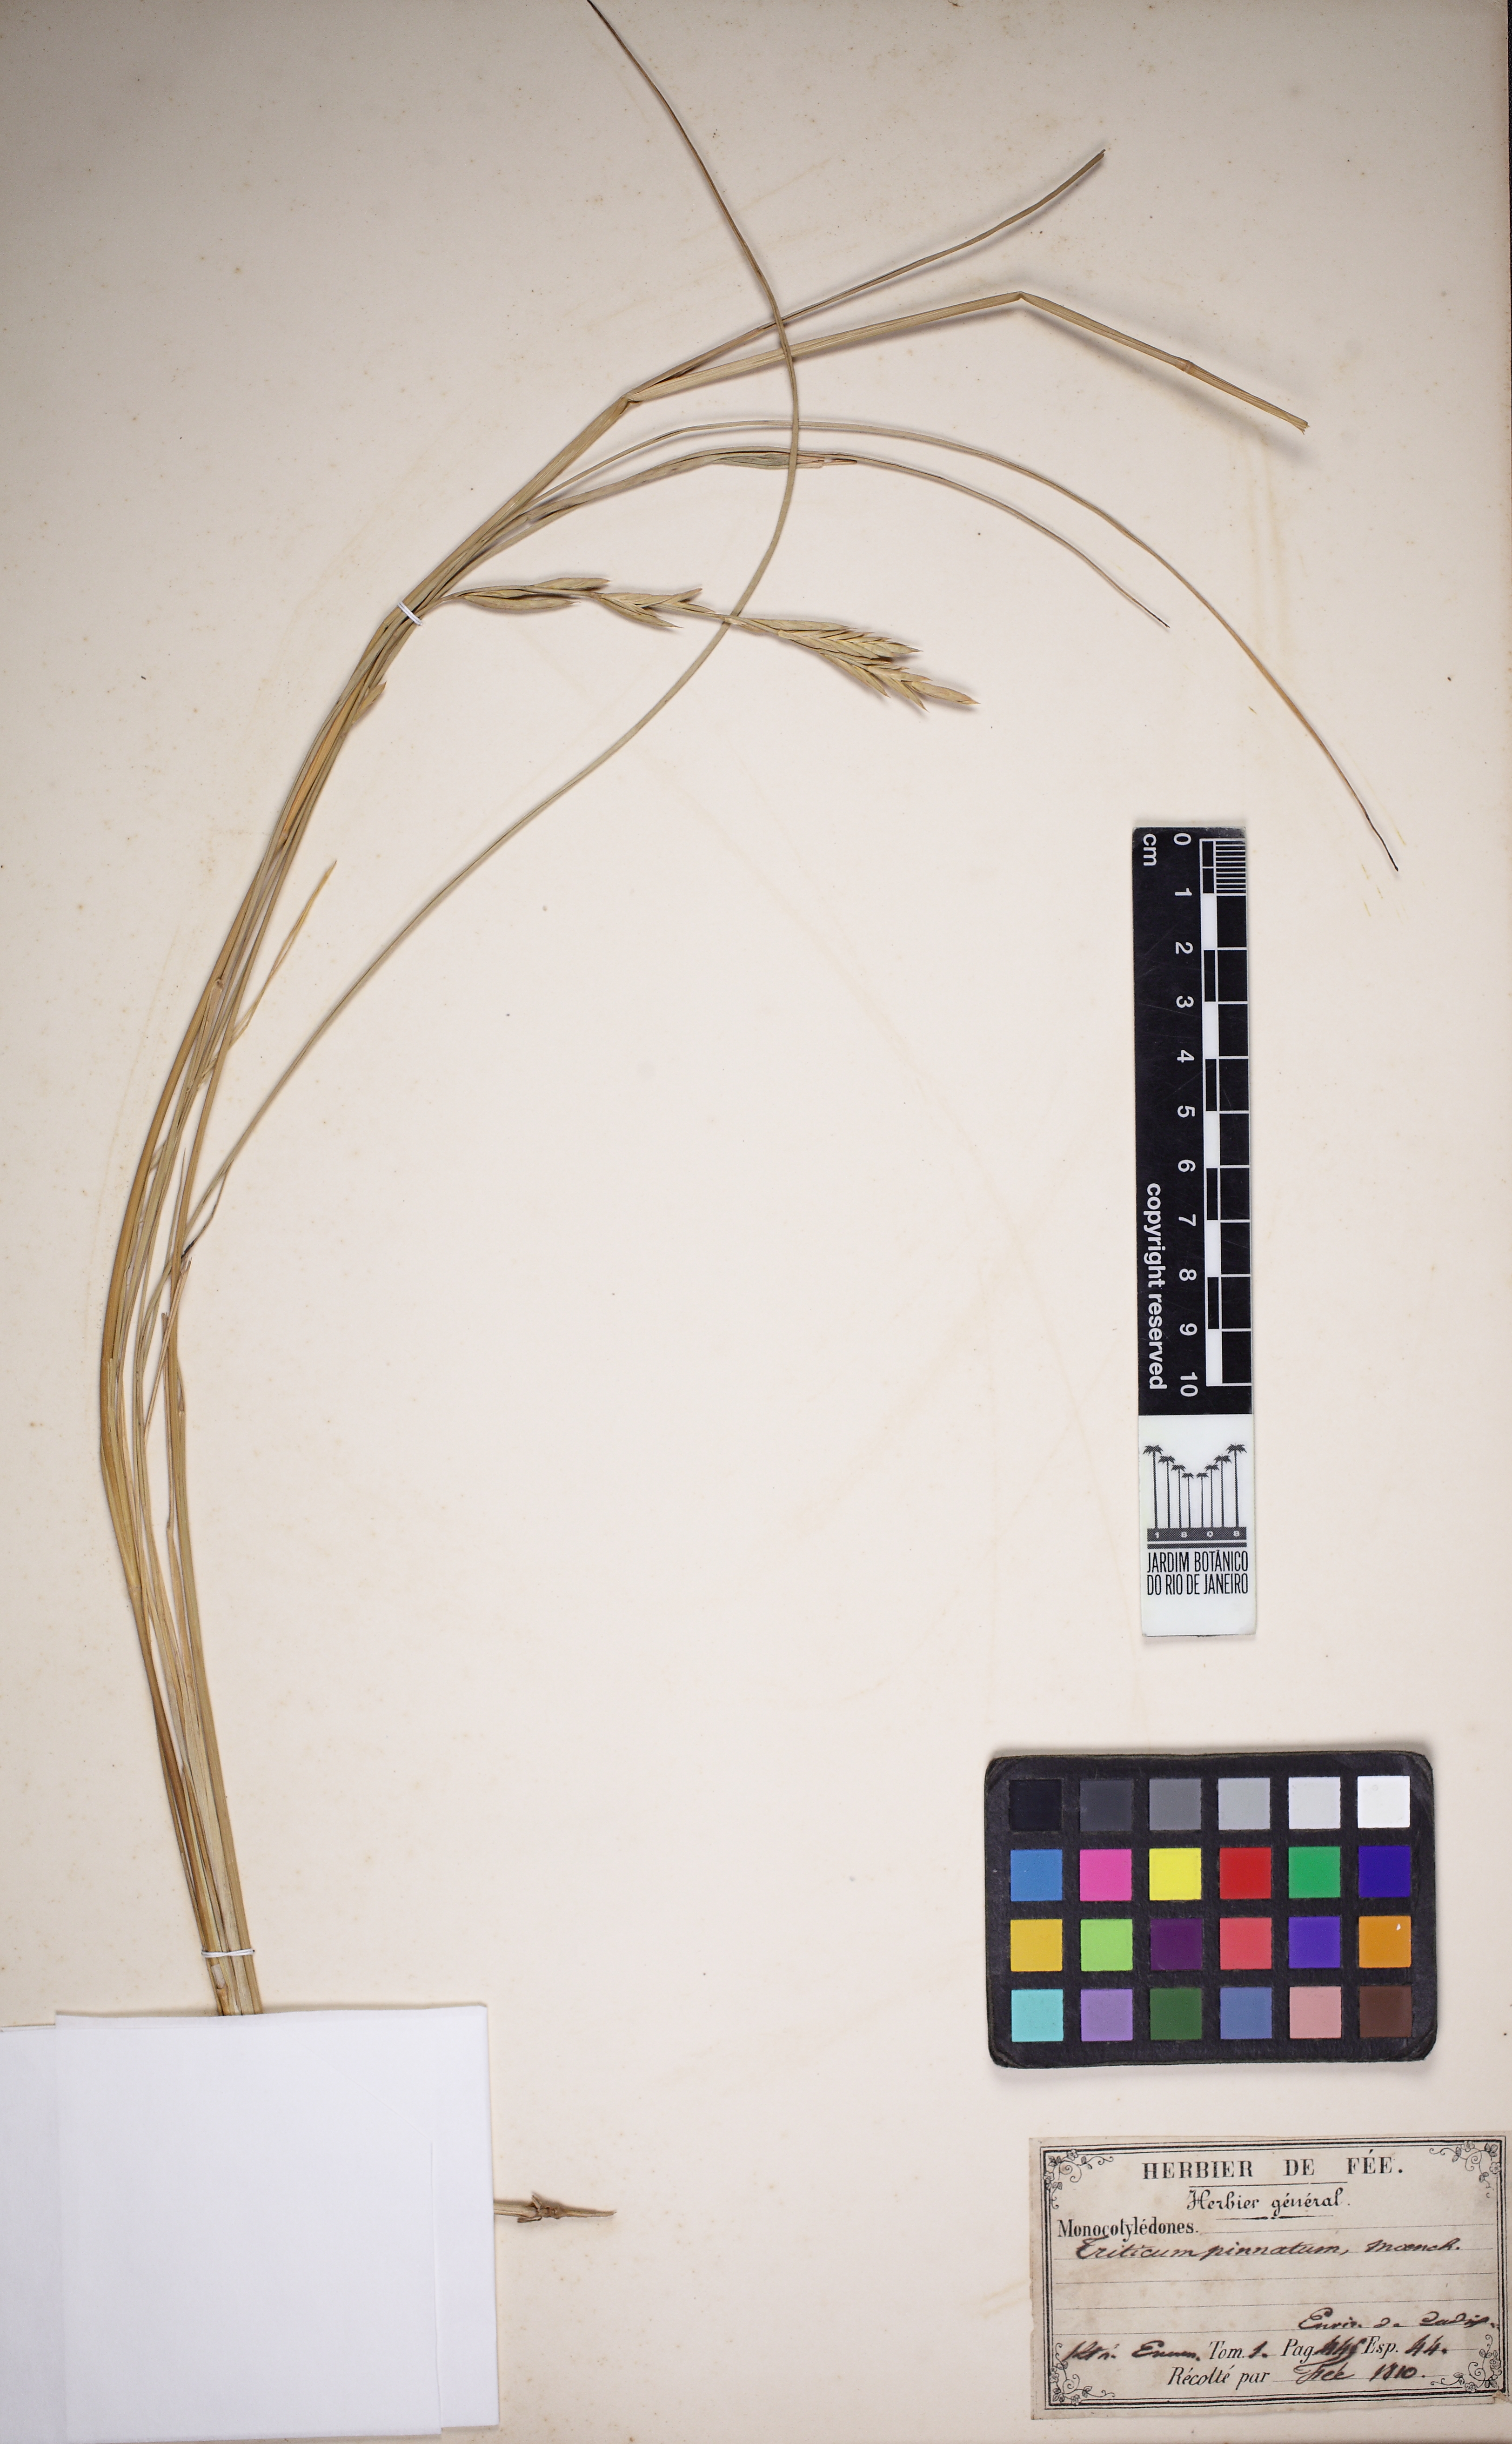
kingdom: Plantae
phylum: Tracheophyta
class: Liliopsida
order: Poales
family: Poaceae
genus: Brachypodium
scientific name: Brachypodium pinnatum
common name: Tor grass
